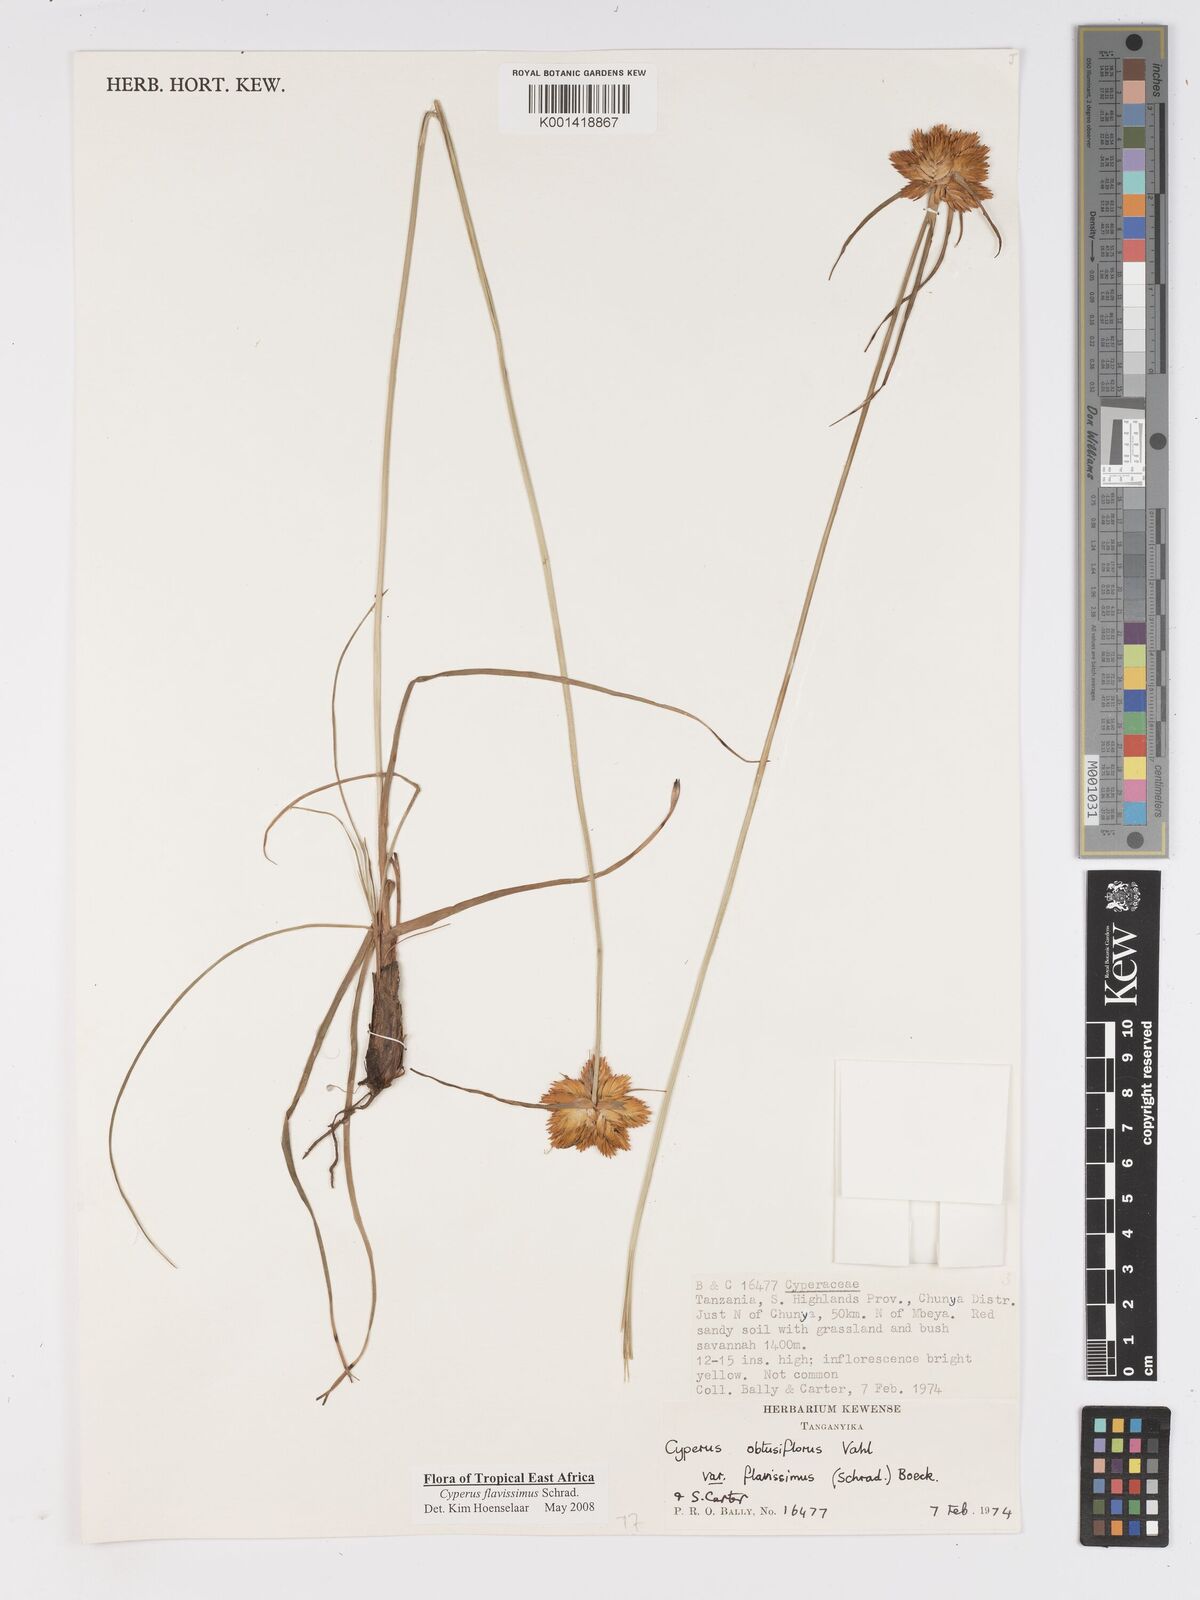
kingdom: Plantae
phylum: Tracheophyta
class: Liliopsida
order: Poales
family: Cyperaceae
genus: Cyperus
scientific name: Cyperus sphaerocephalus
